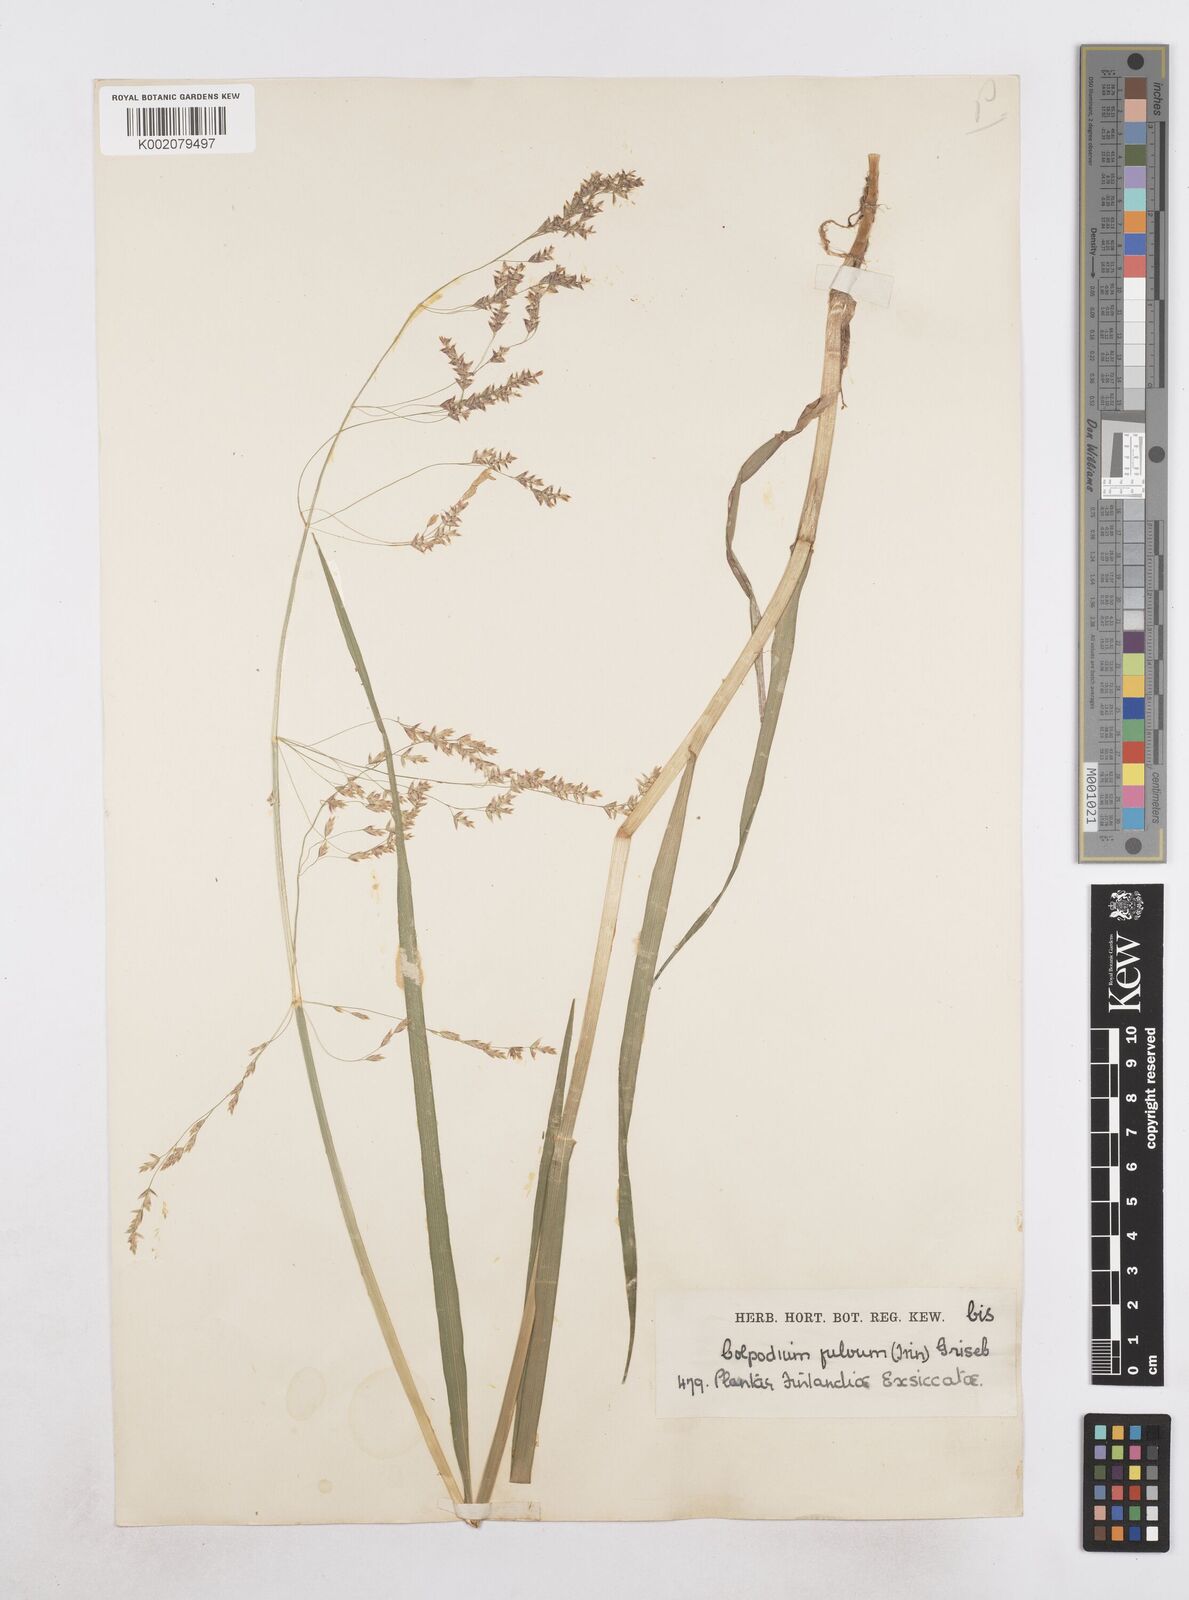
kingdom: Plantae
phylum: Tracheophyta
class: Liliopsida
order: Poales
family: Poaceae
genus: Dupontia
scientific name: Dupontia fulva
